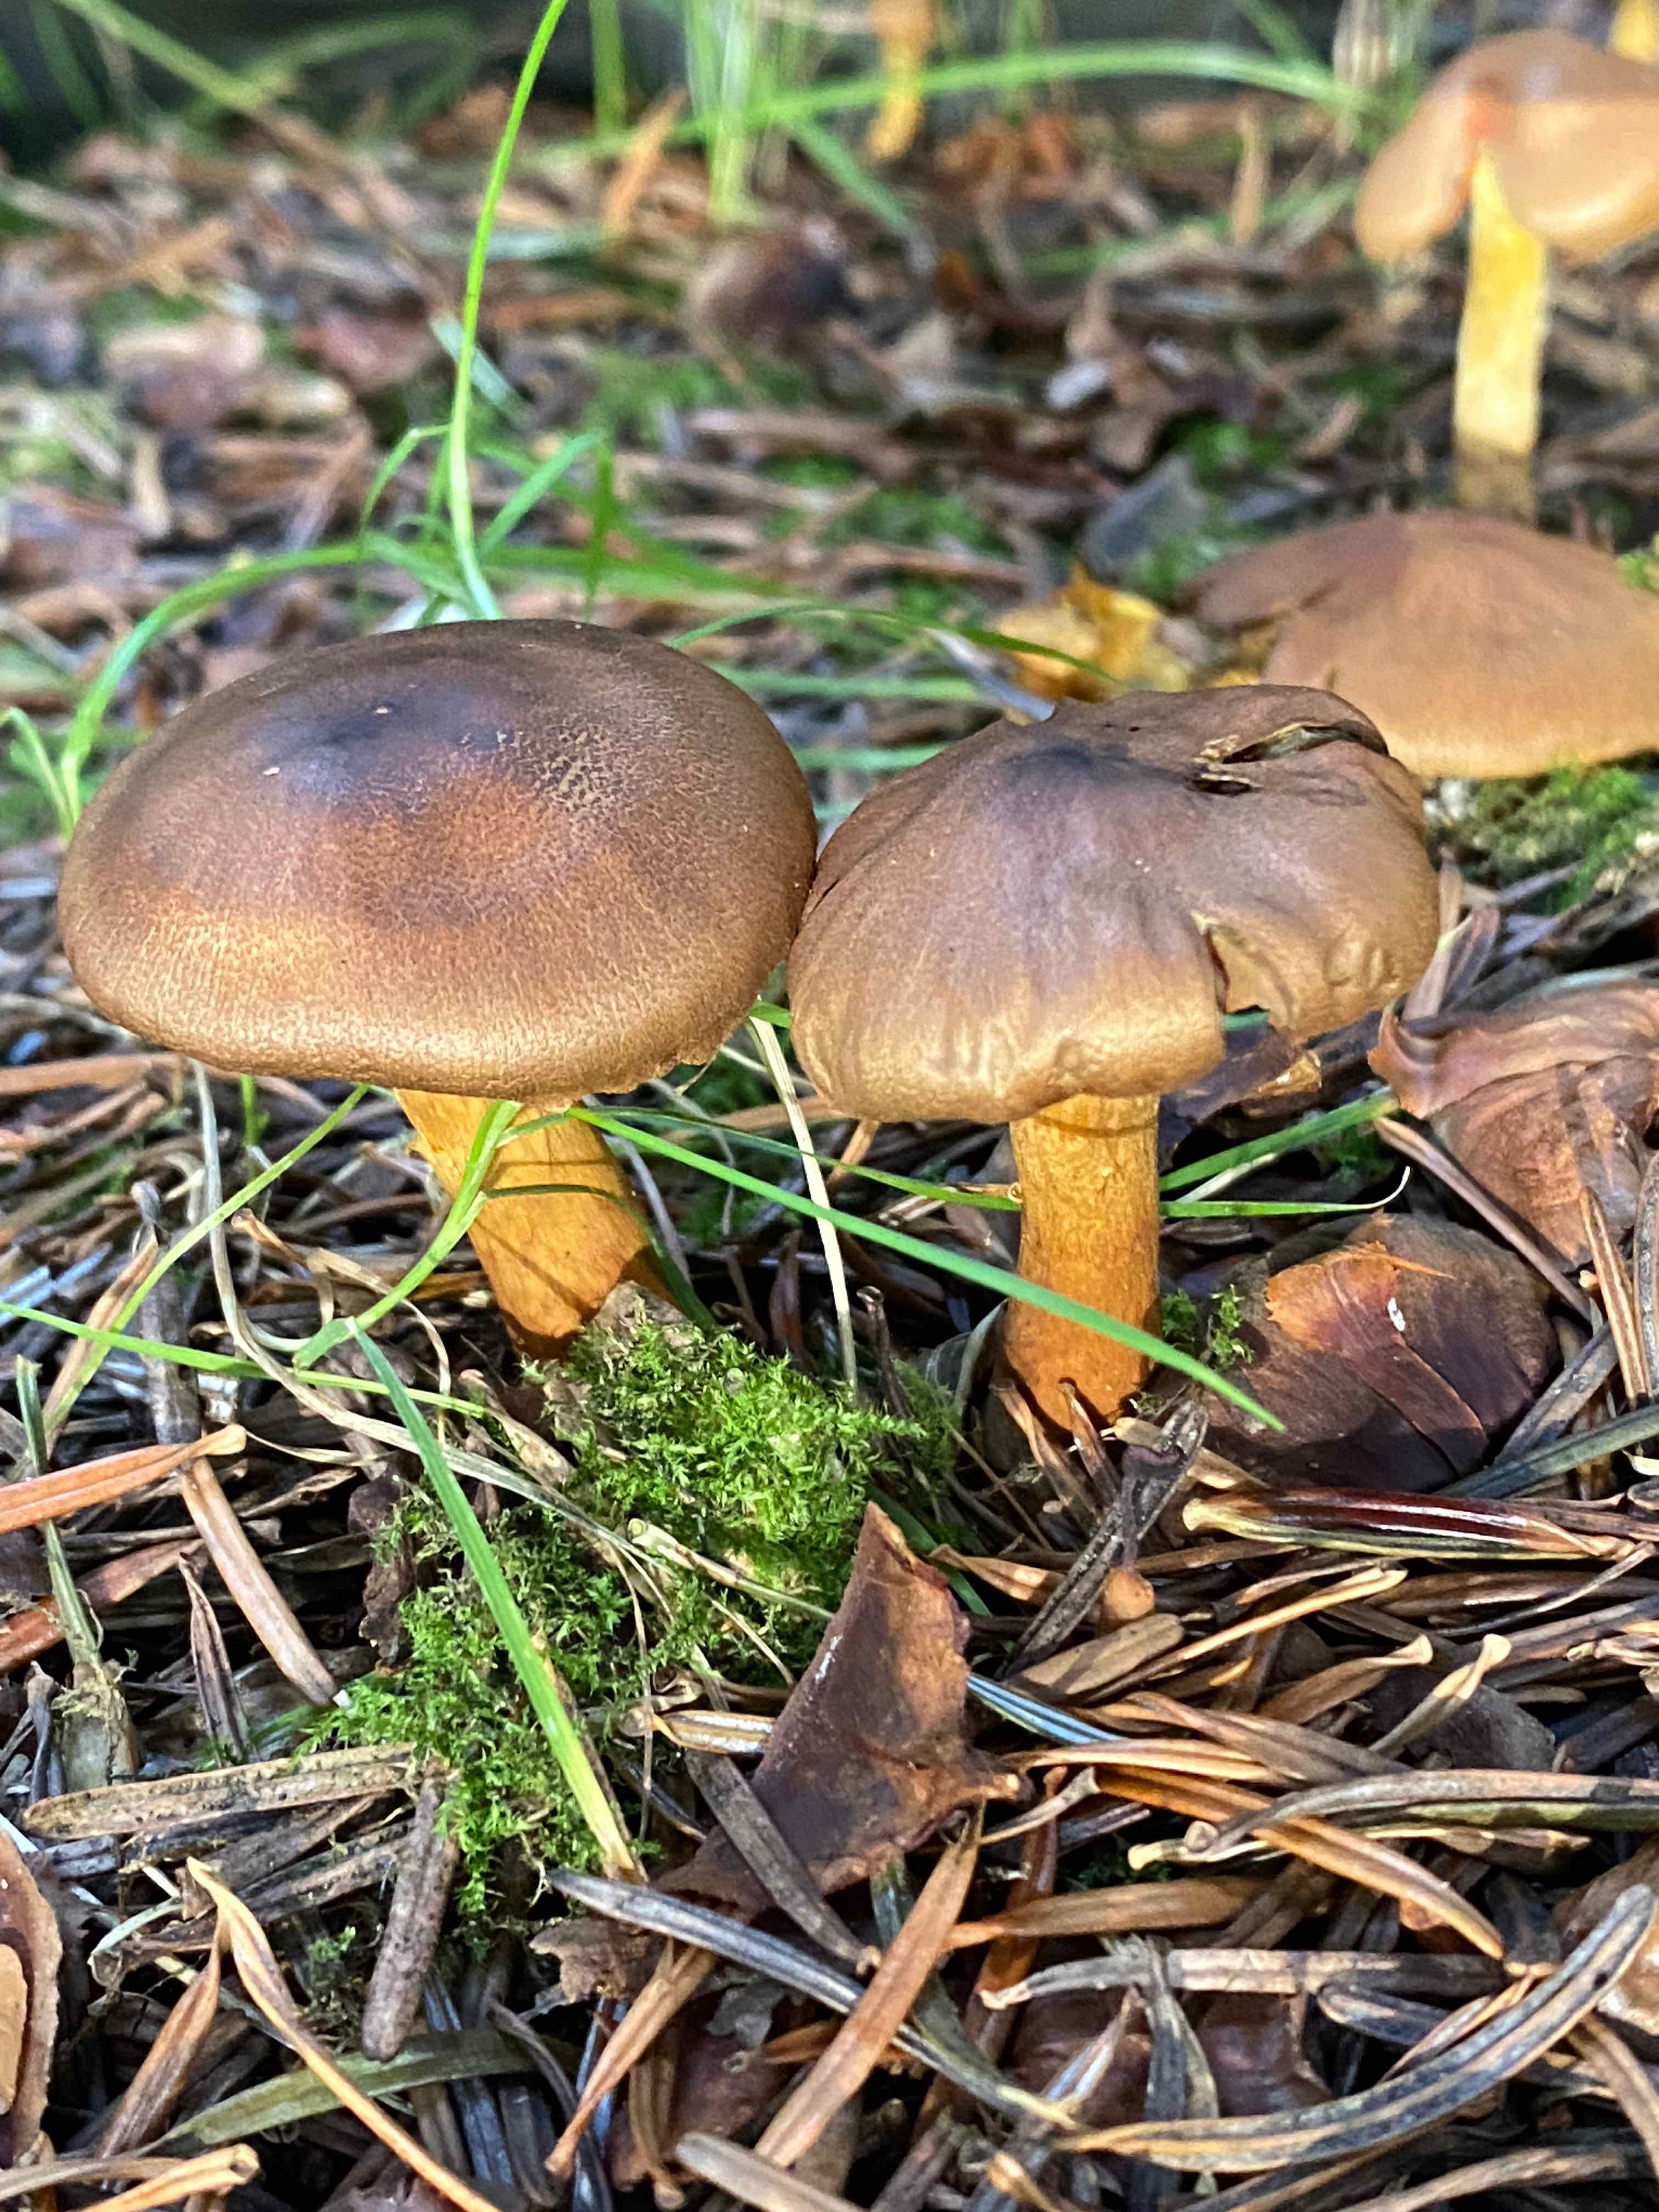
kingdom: Fungi
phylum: Basidiomycota
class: Agaricomycetes
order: Agaricales
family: Cortinariaceae
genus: Cortinarius
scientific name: Cortinarius
